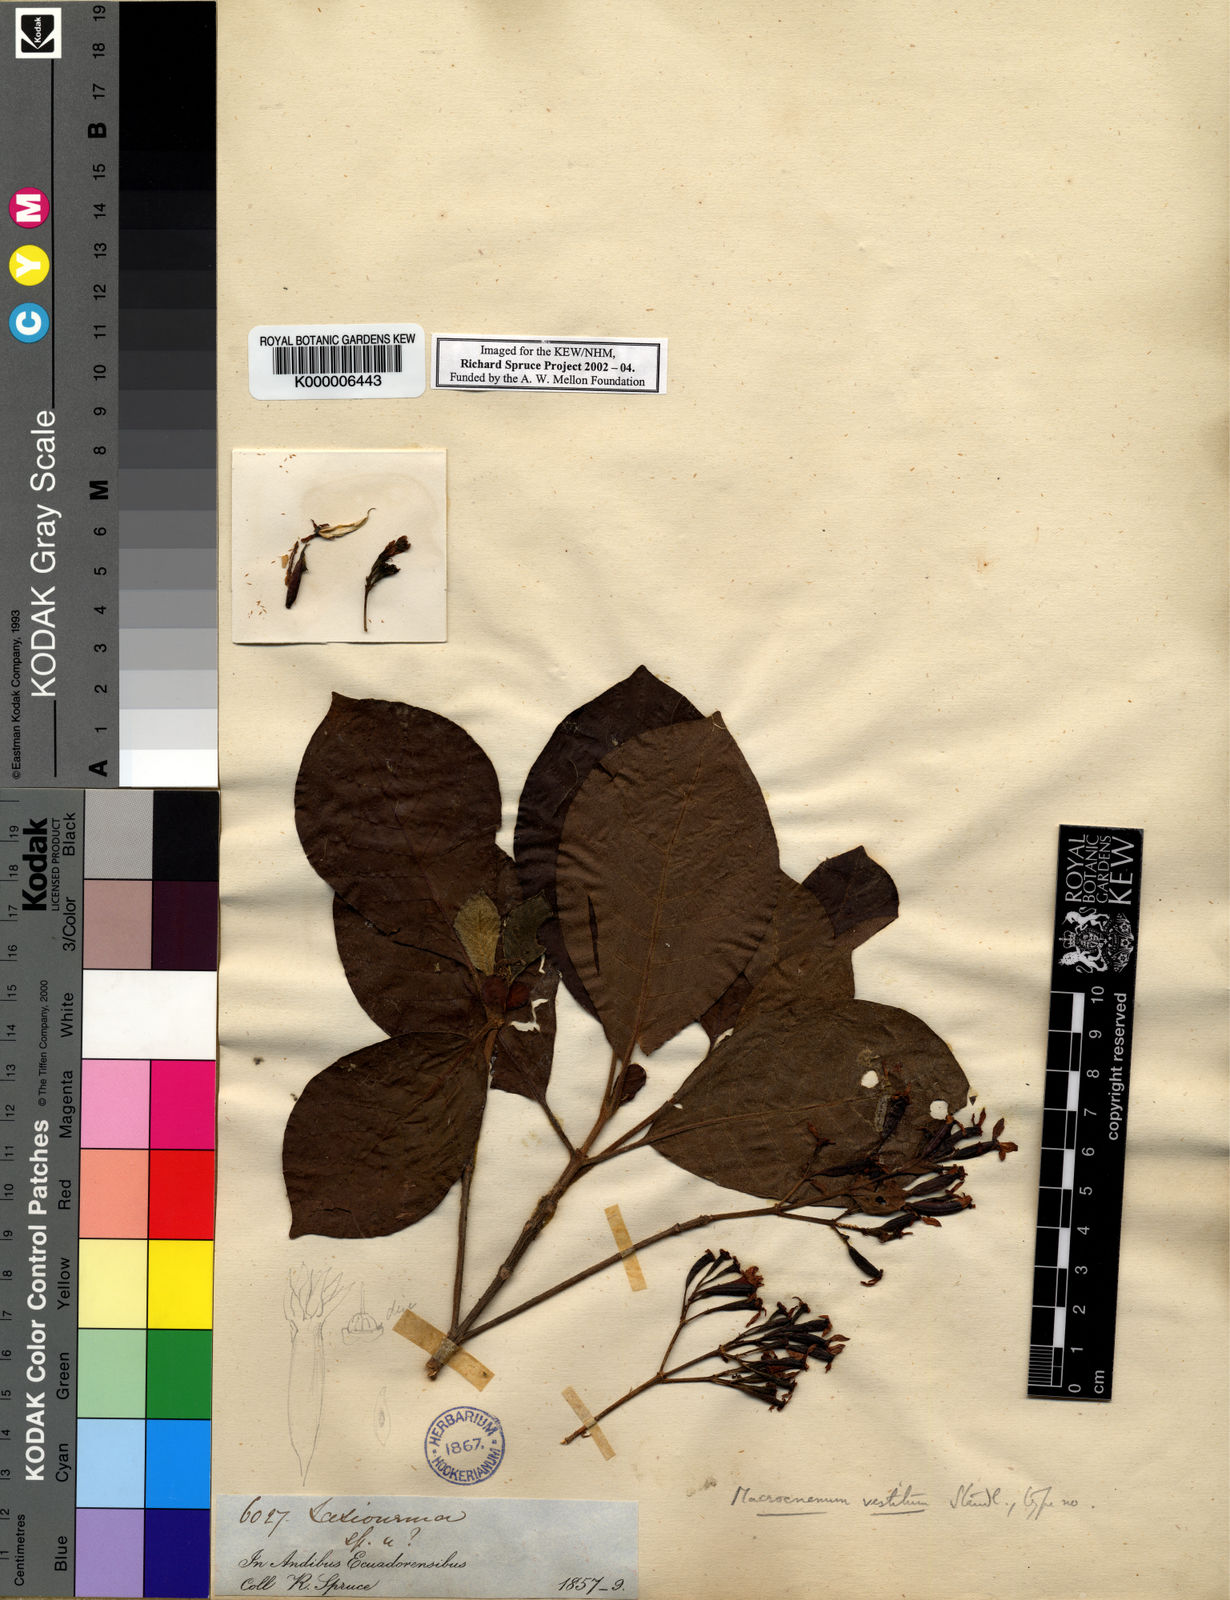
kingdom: Plantae
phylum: Tracheophyta
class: Magnoliopsida
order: Gentianales
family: Rubiaceae
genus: Macrocnemum
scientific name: Macrocnemum humboldtianum
